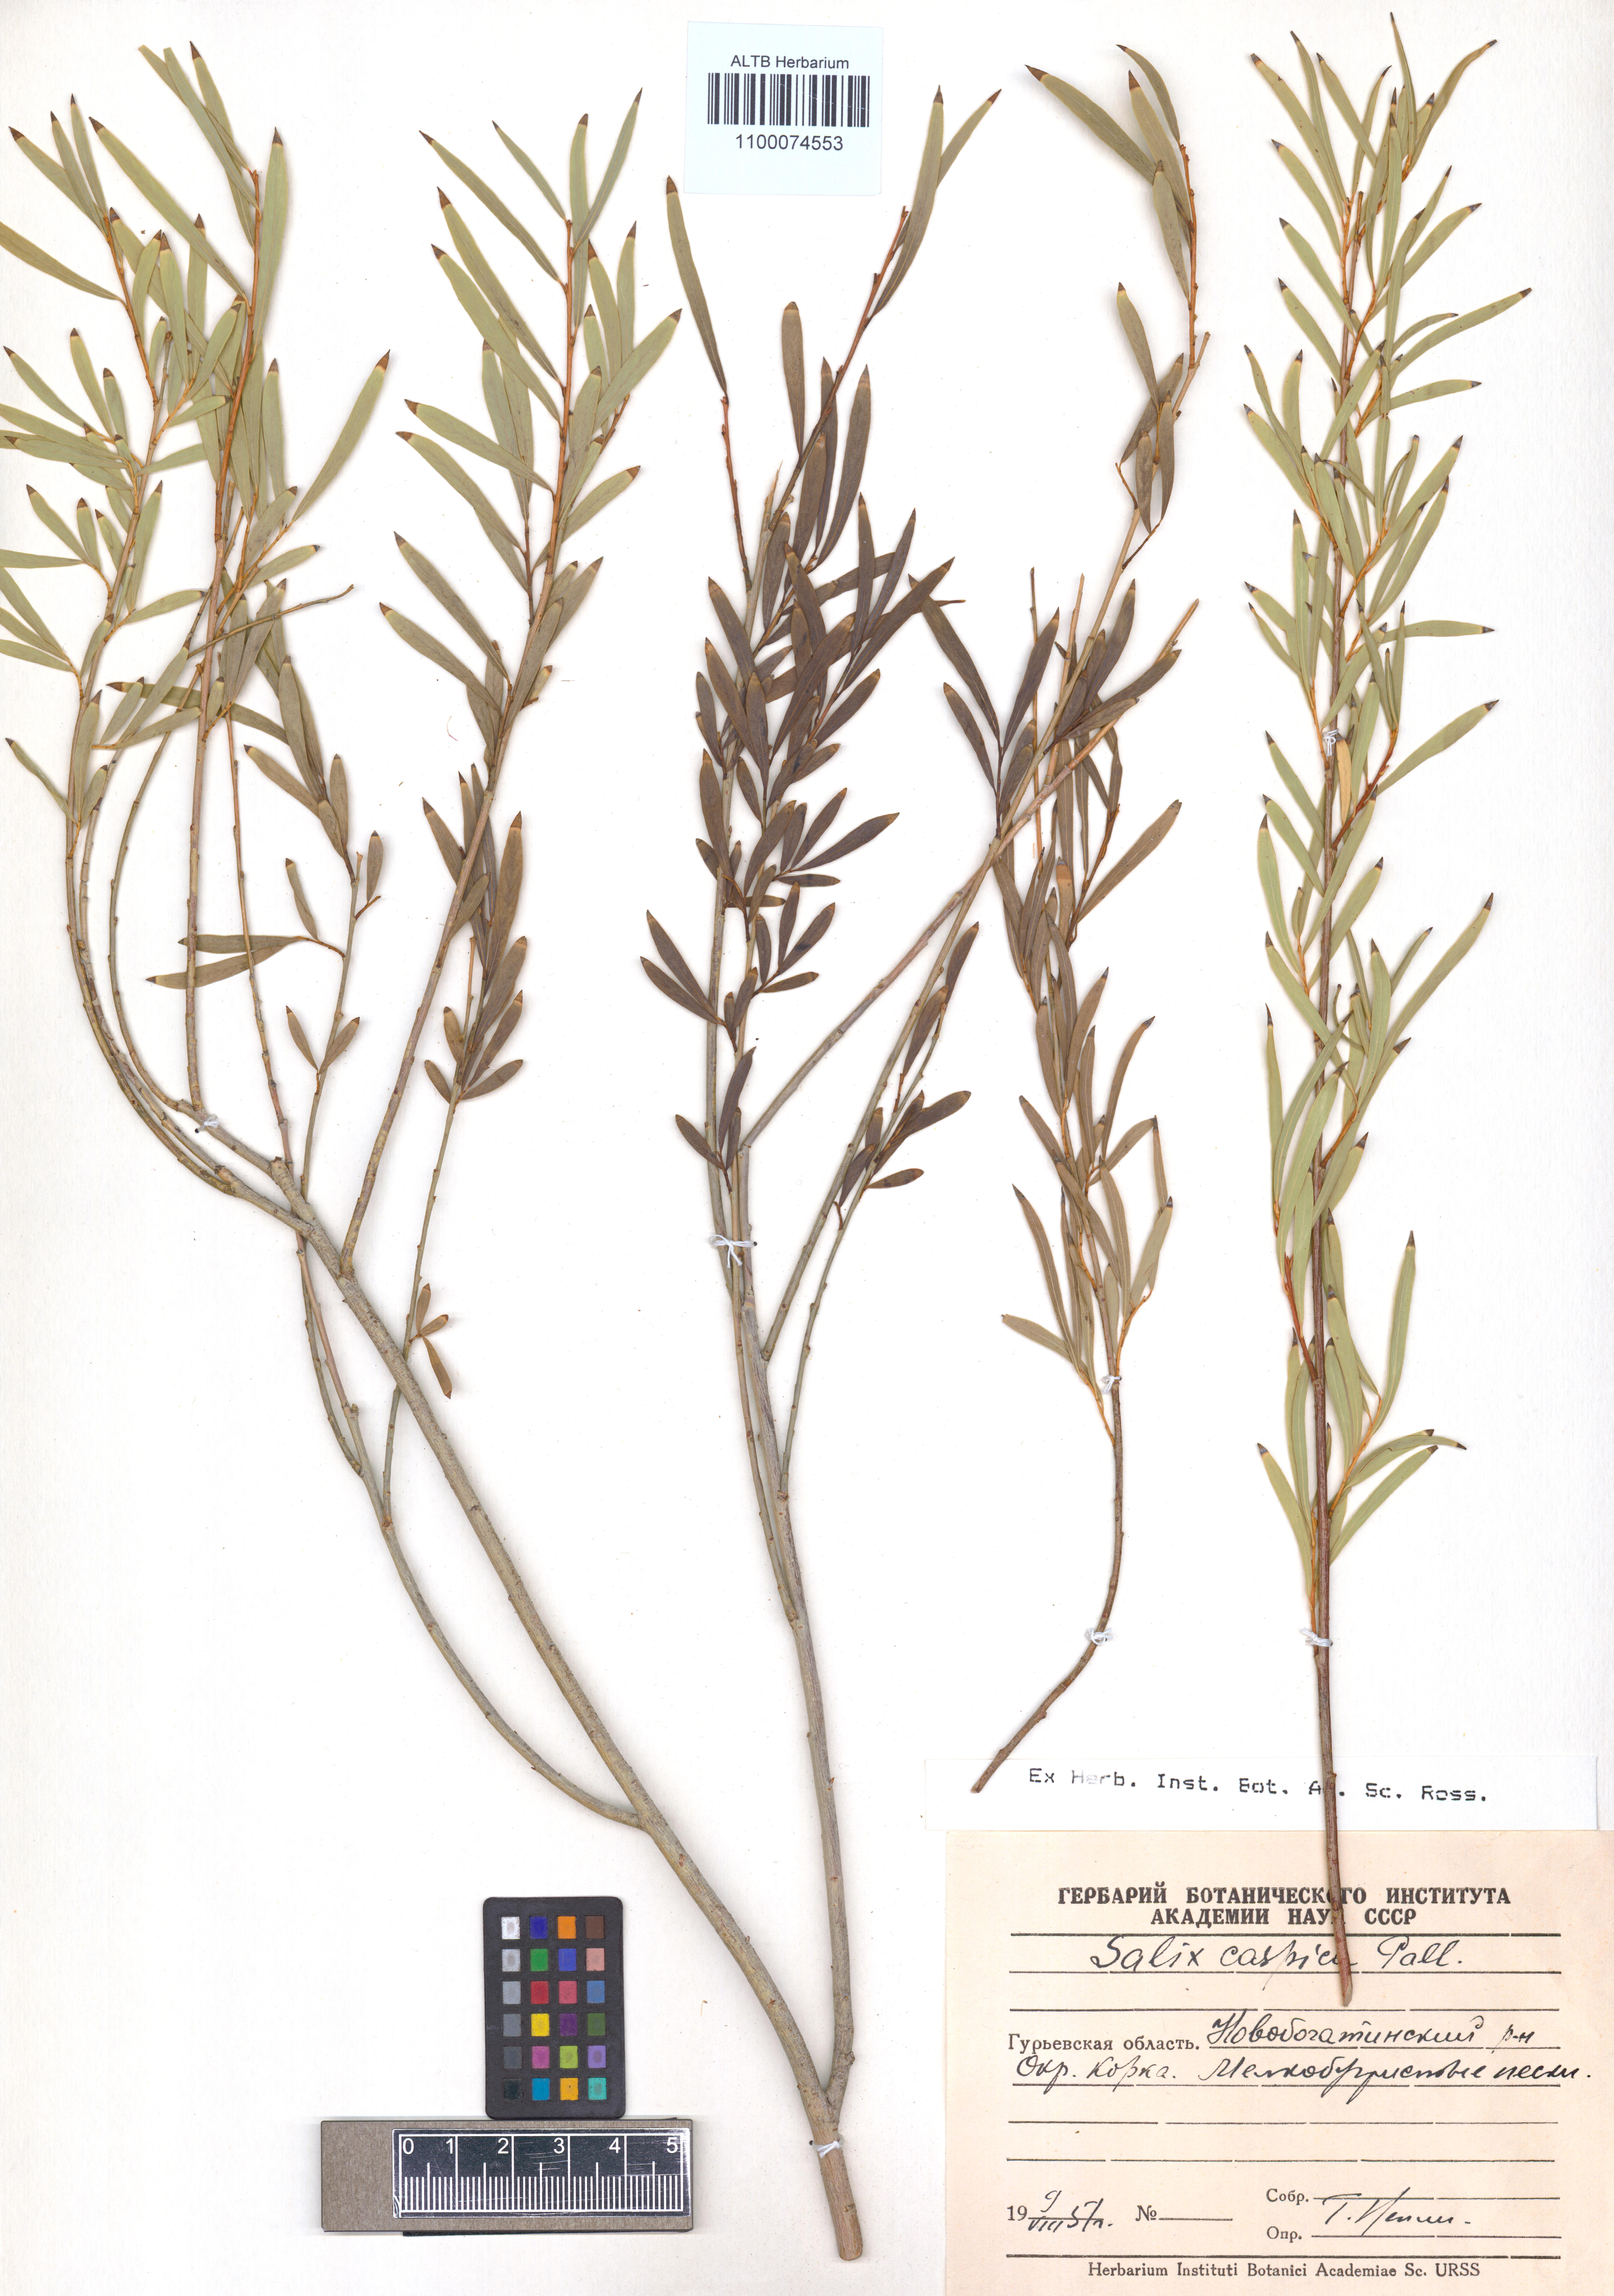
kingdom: Plantae
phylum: Tracheophyta
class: Magnoliopsida
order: Malpighiales
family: Salicaceae
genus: Salix
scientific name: Salix caspica
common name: Caspian willow
